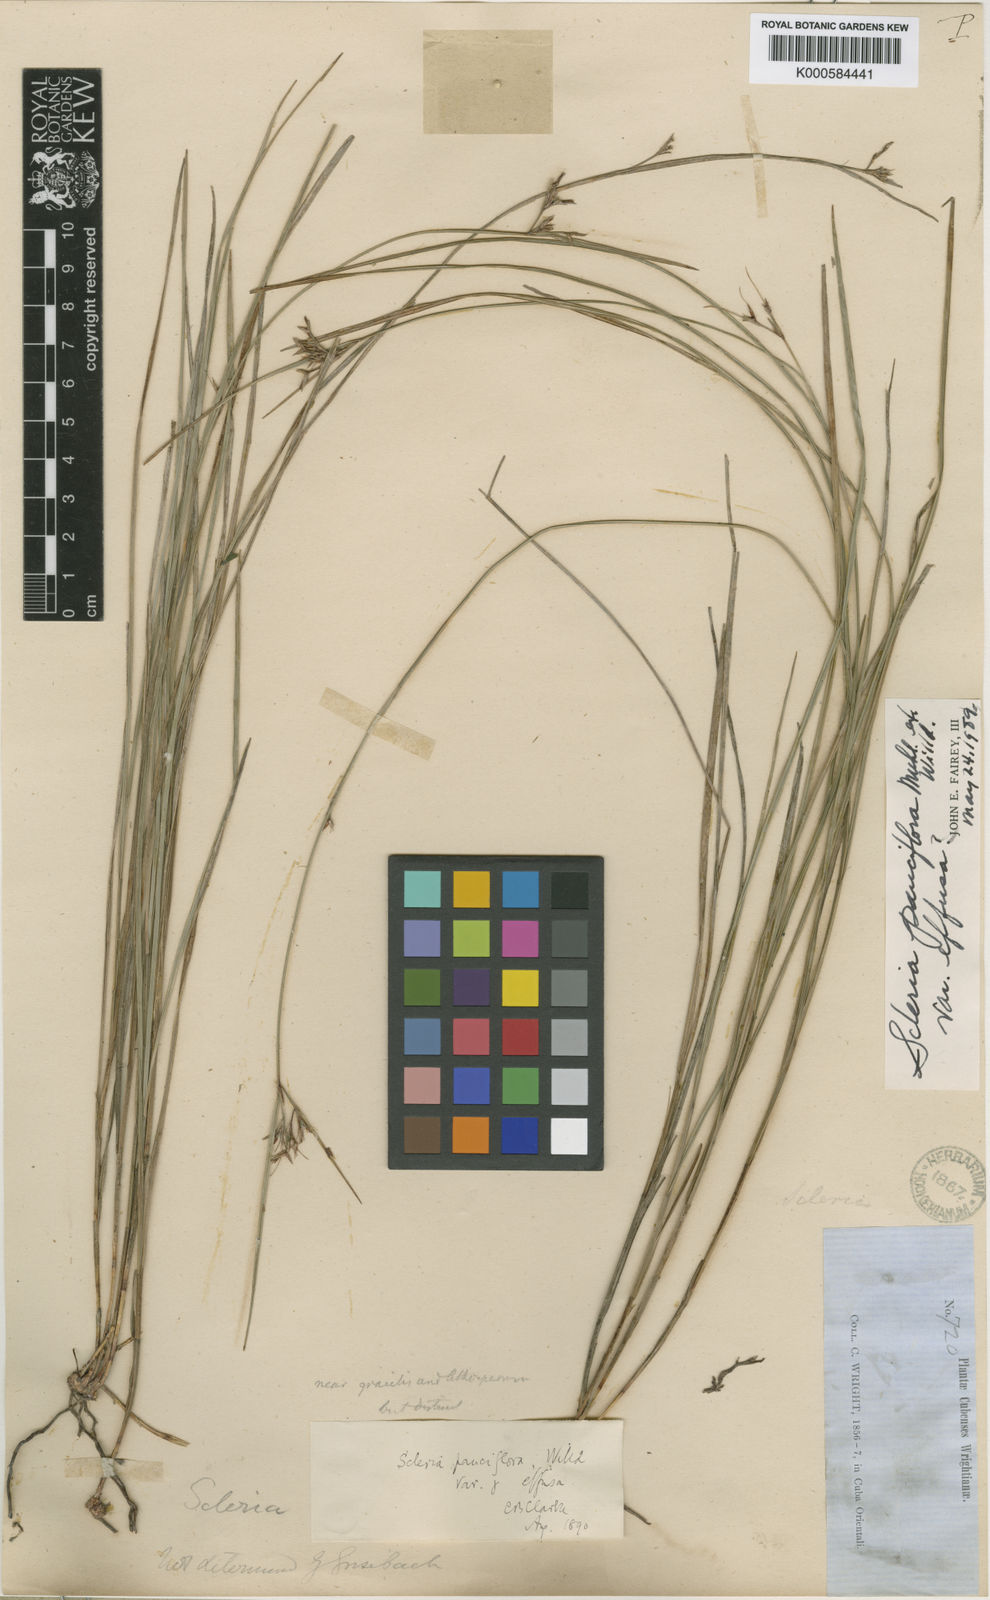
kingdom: Plantae
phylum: Tracheophyta
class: Liliopsida
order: Poales
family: Cyperaceae
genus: Scleria
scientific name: Scleria pauciflora
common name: Few-flowered nutrush
